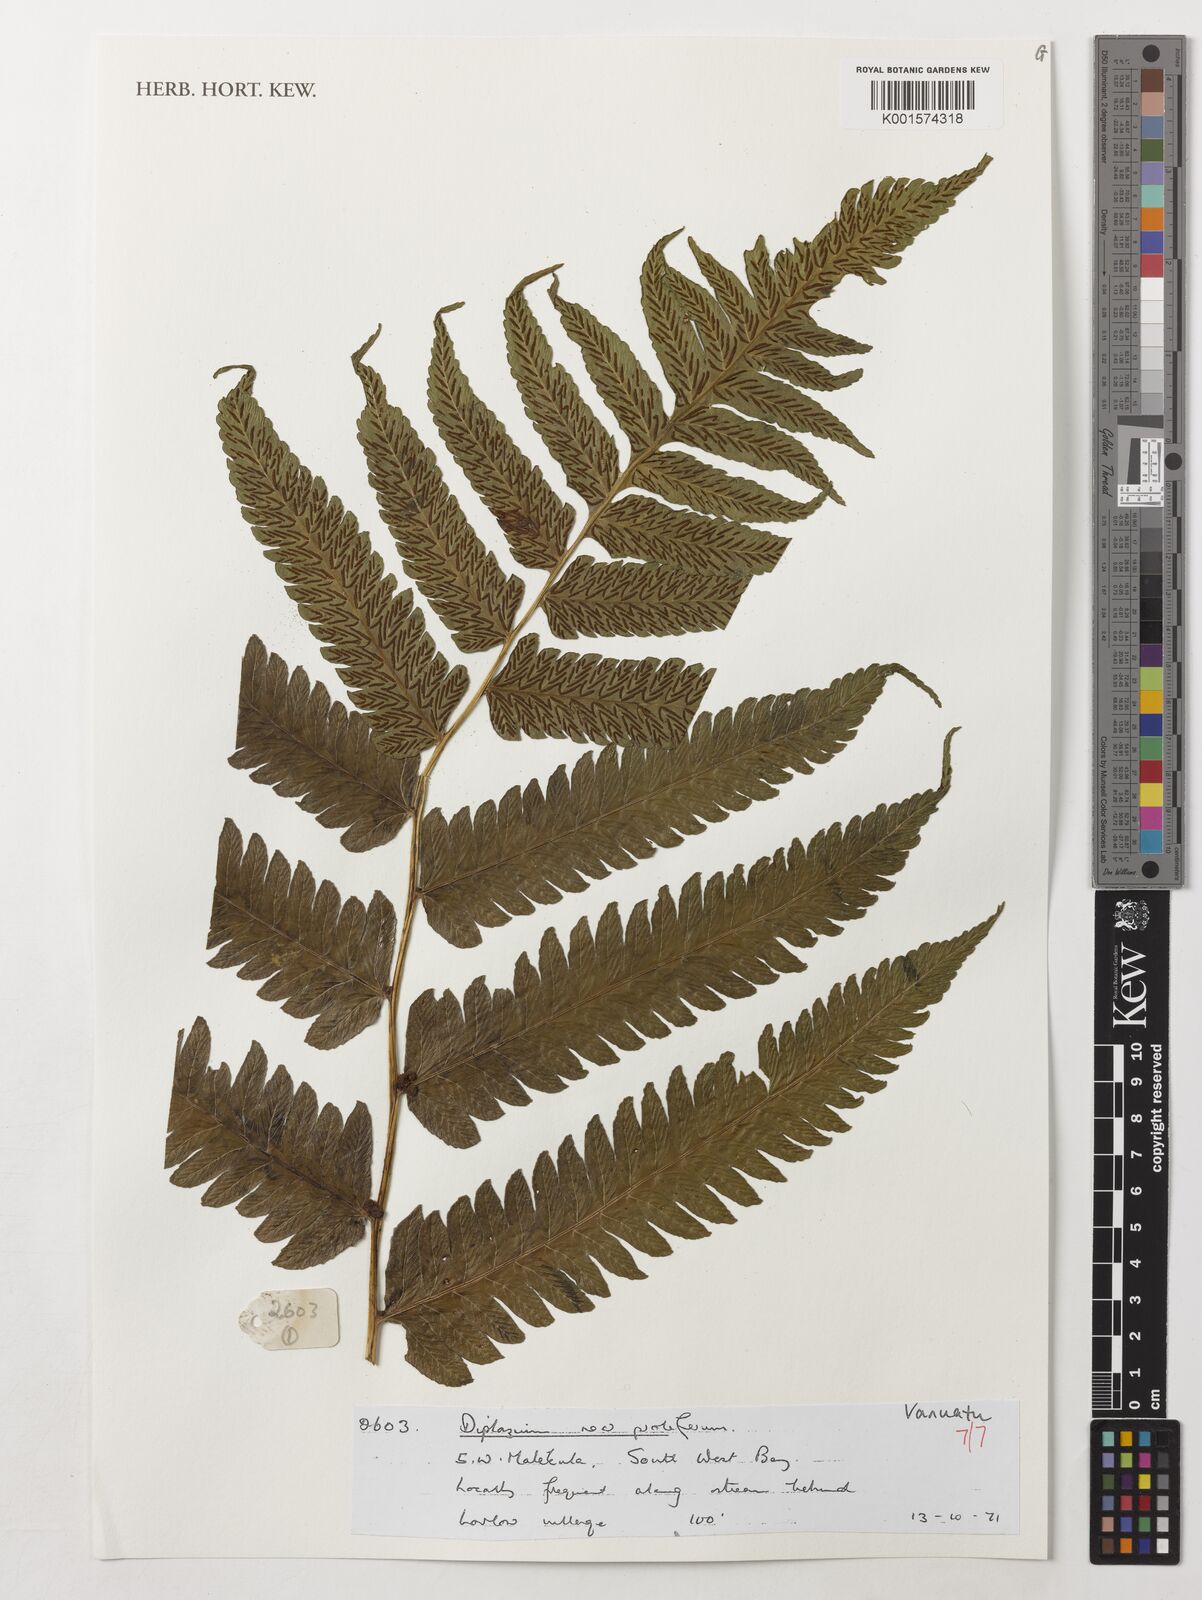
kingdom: Plantae
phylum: Tracheophyta
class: Polypodiopsida
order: Polypodiales
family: Athyriaceae
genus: Diplazium
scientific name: Diplazium proliferum
